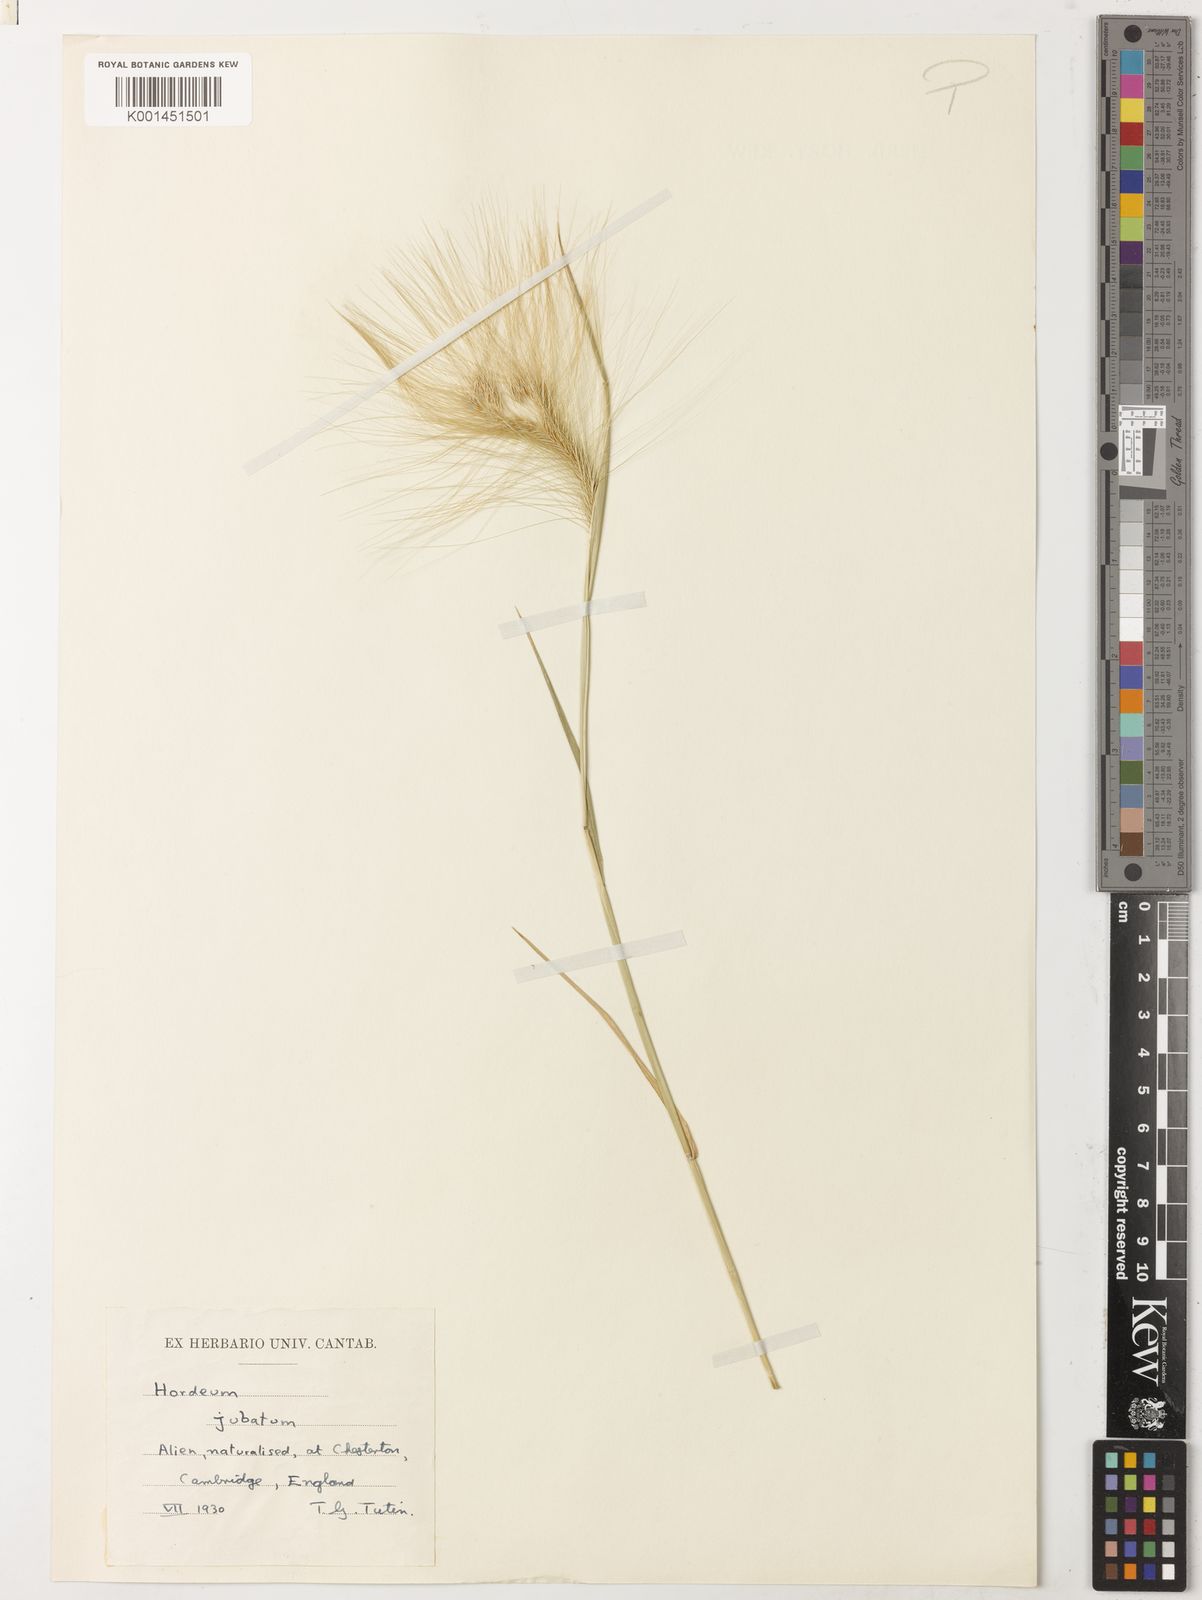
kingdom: Plantae
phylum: Tracheophyta
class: Liliopsida
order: Poales
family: Poaceae
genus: Hordeum
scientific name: Hordeum jubatum
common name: Foxtail barley
